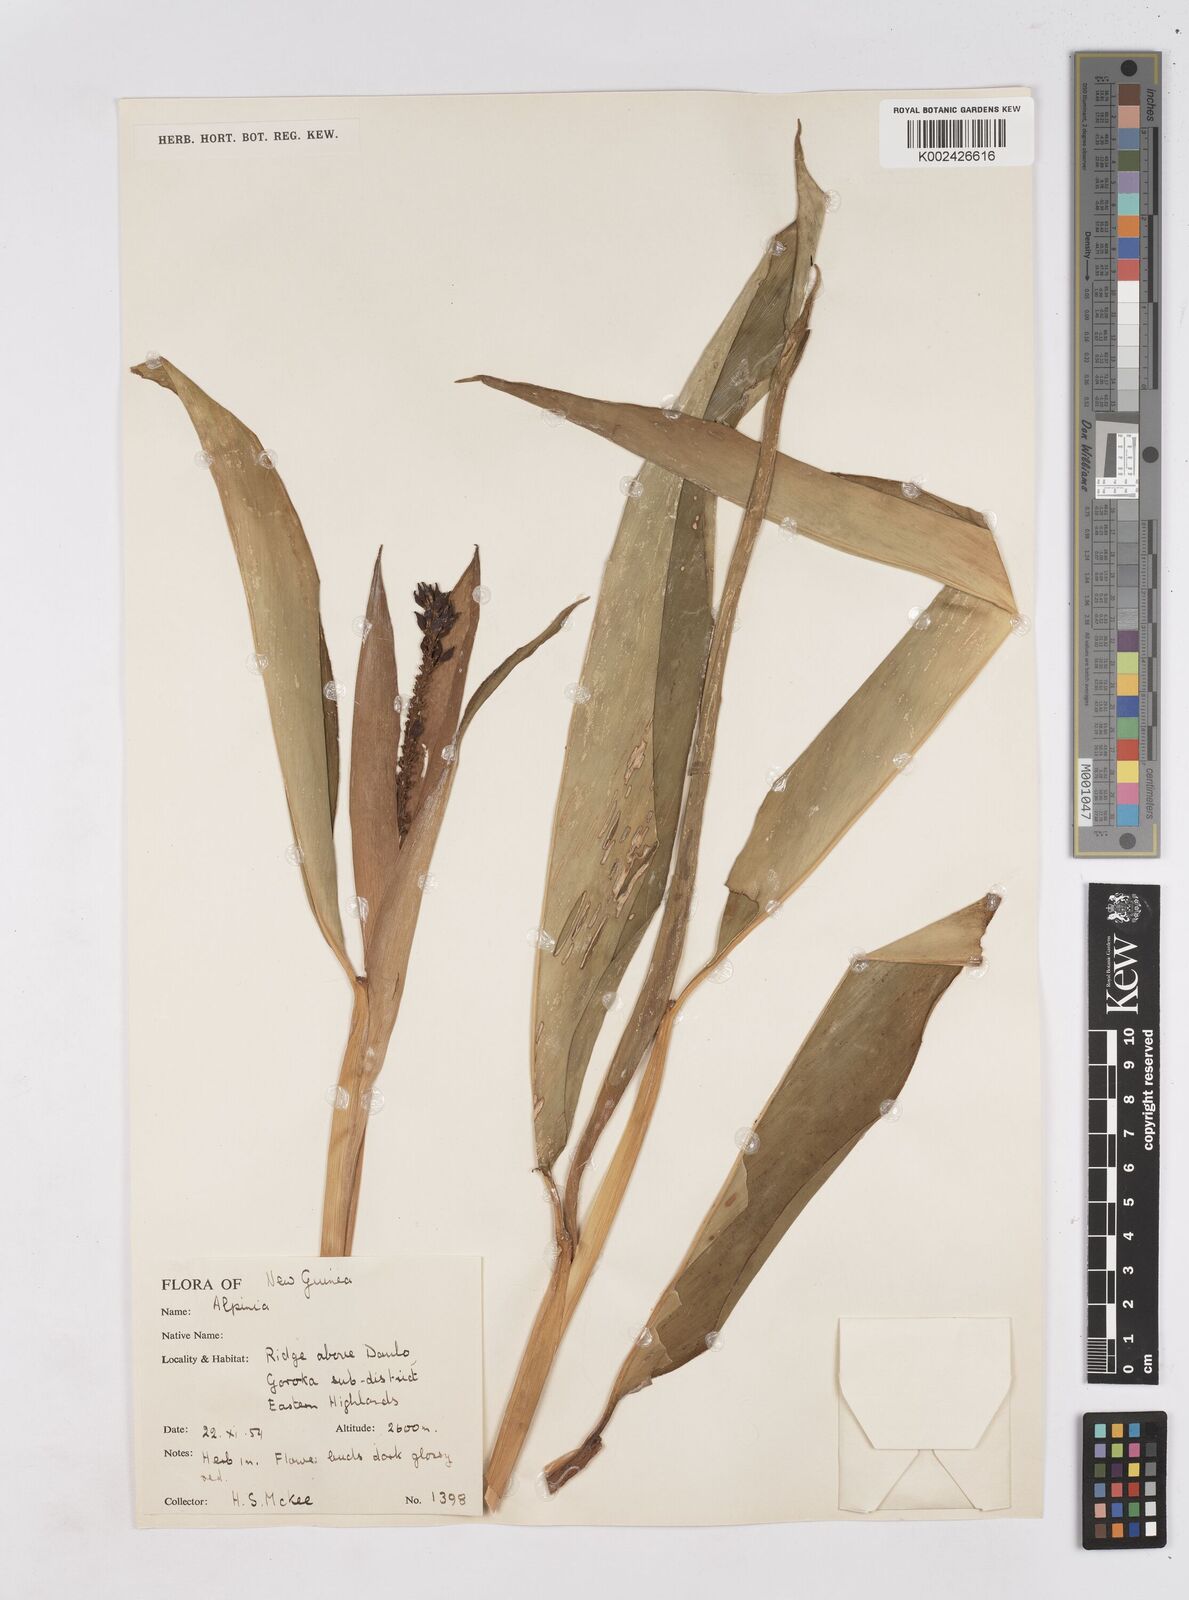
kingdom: Plantae
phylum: Tracheophyta
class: Liliopsida
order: Zingiberales
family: Zingiberaceae
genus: Riedelia
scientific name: Riedelia
